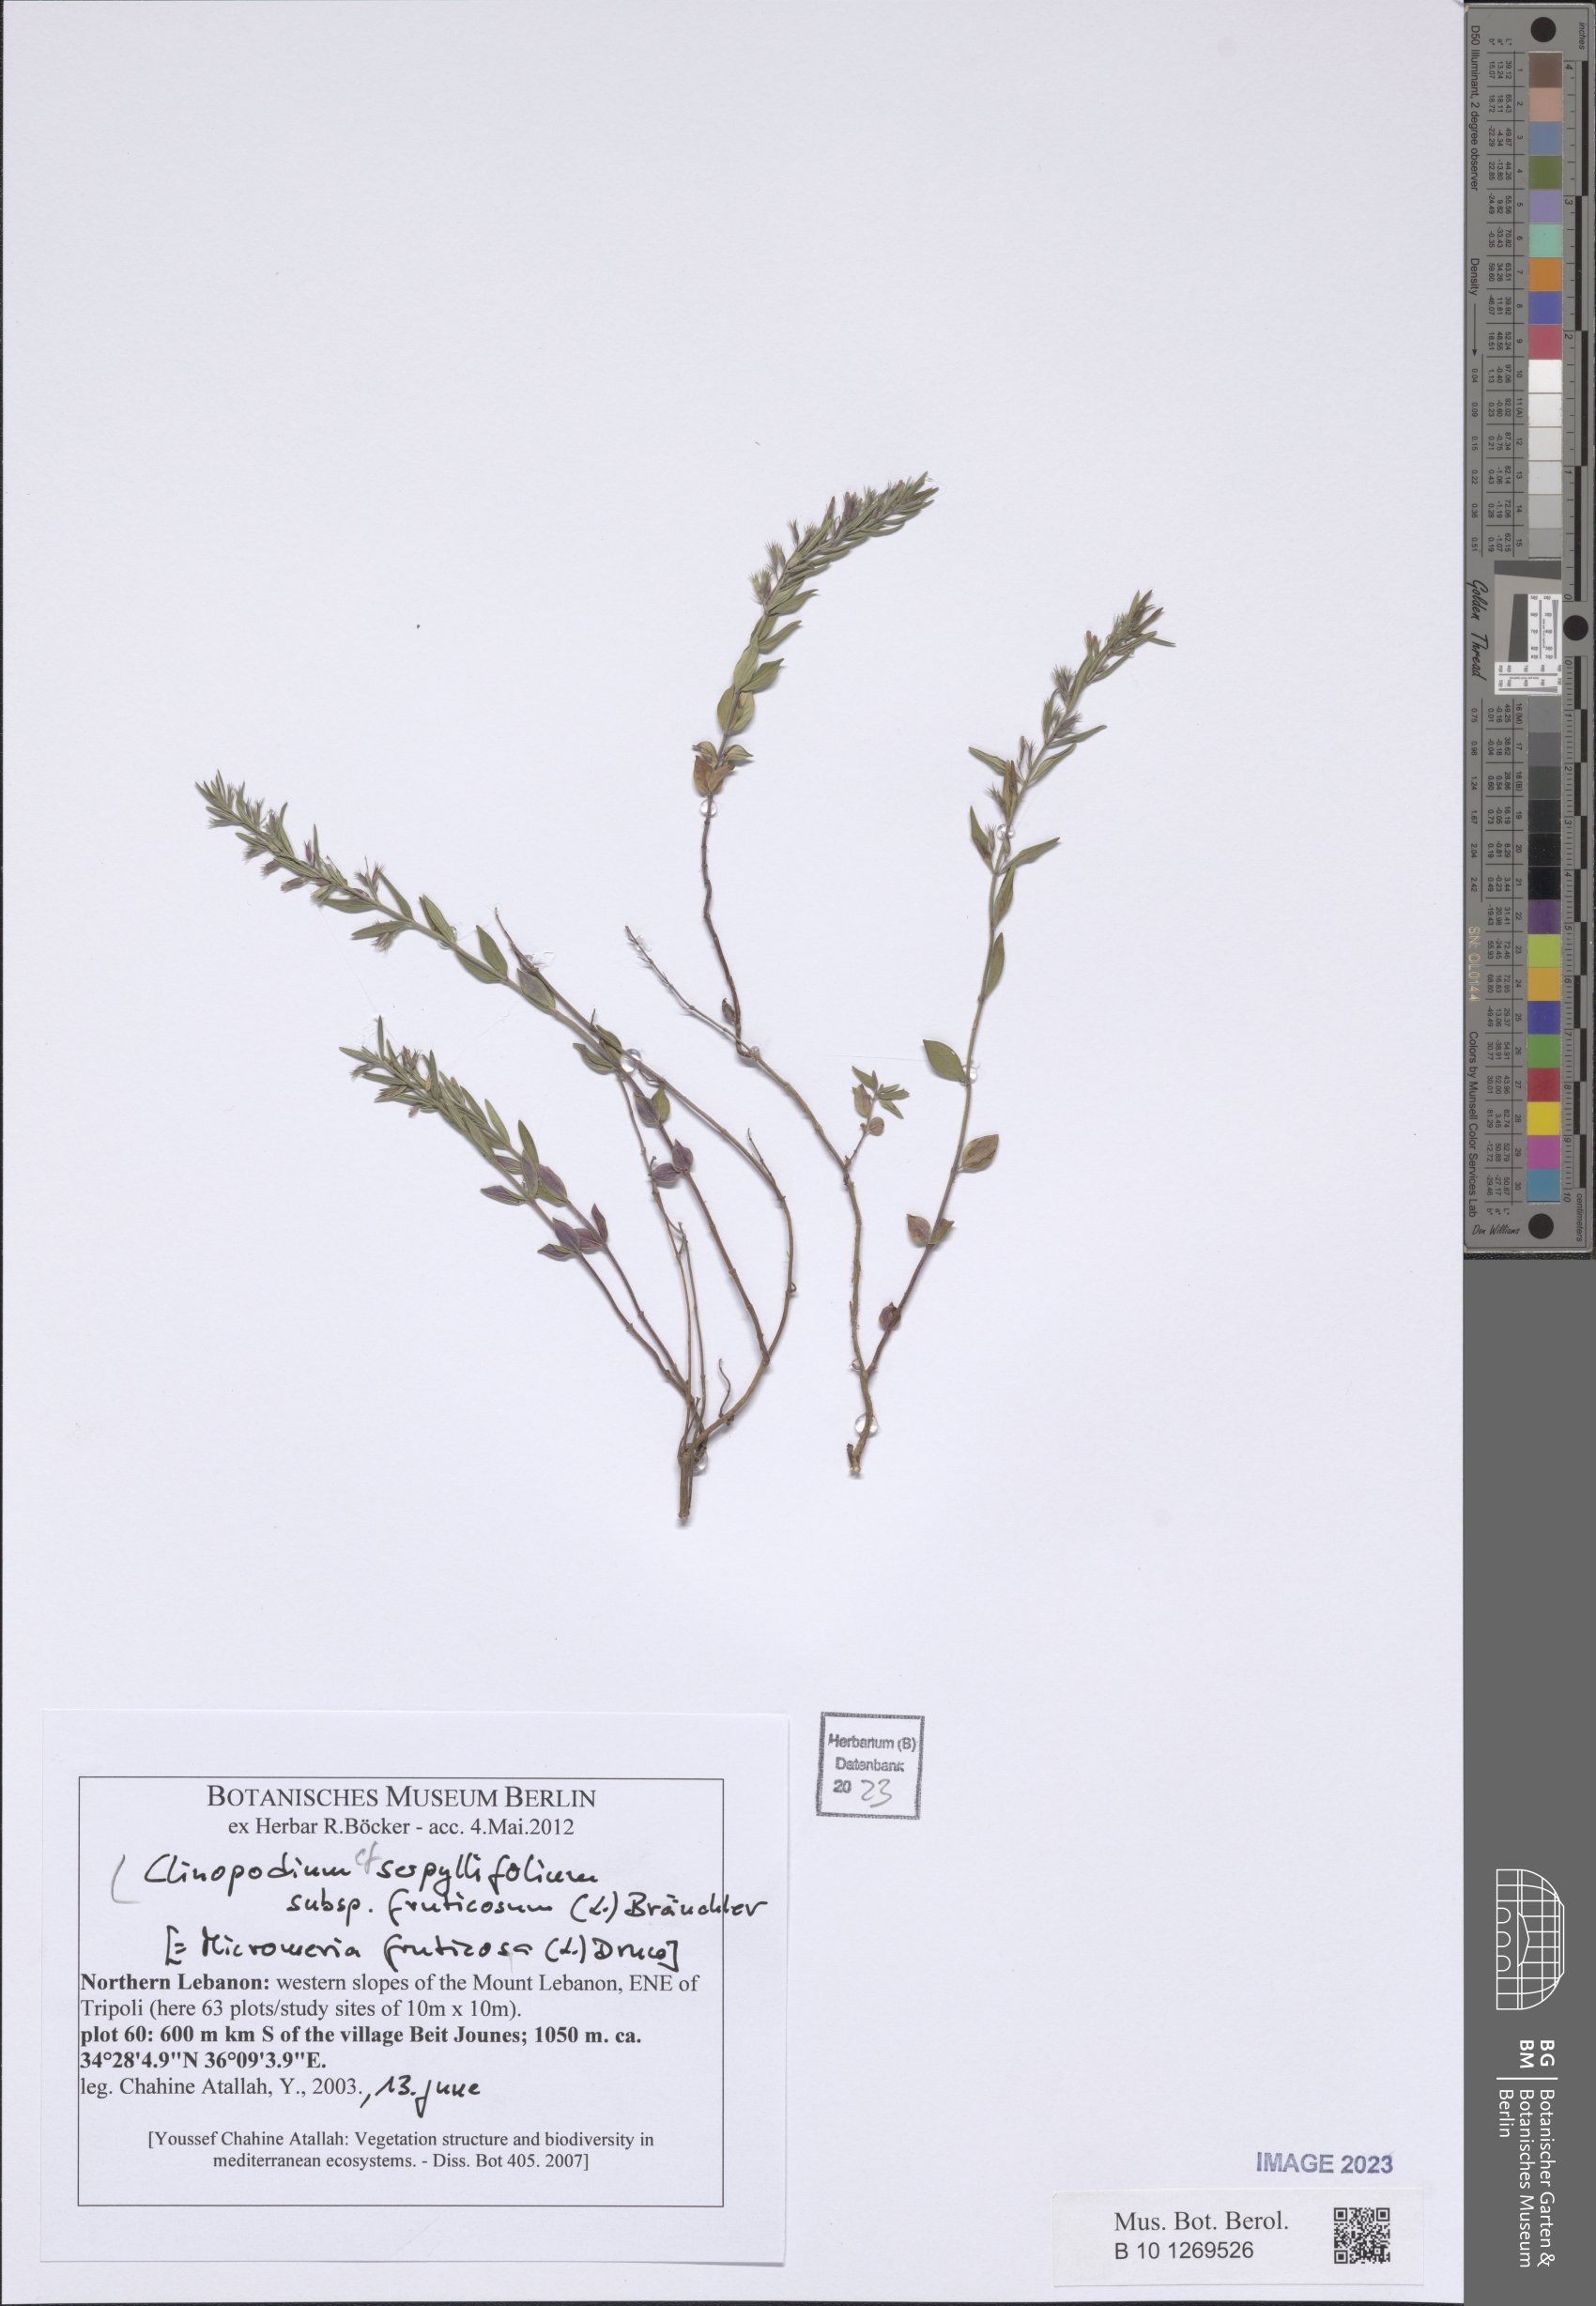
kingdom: Plantae
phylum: Tracheophyta
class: Magnoliopsida
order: Lamiales
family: Lamiaceae
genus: Clinopodium
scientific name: Clinopodium serpyllifolium
